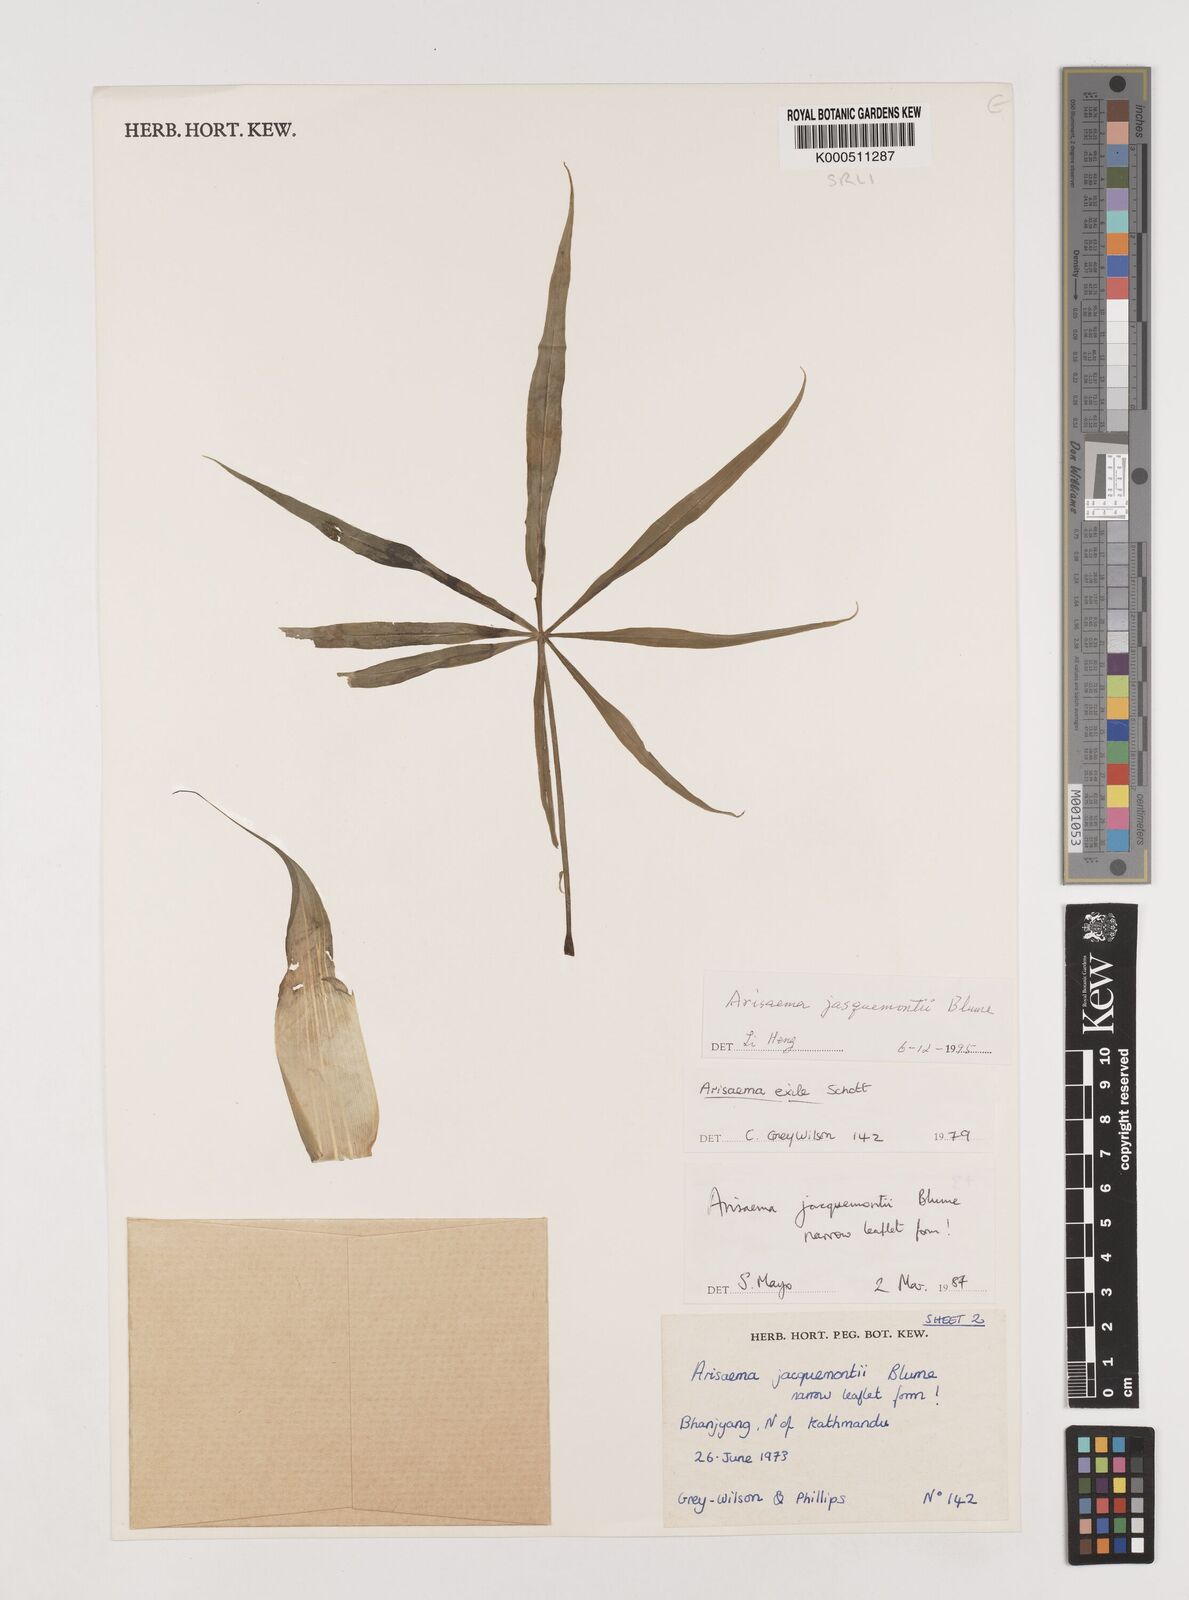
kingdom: Plantae
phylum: Tracheophyta
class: Liliopsida
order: Alismatales
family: Araceae
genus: Arisaema
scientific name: Arisaema jacquemontii
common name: Jacquemont's cobra-lily
